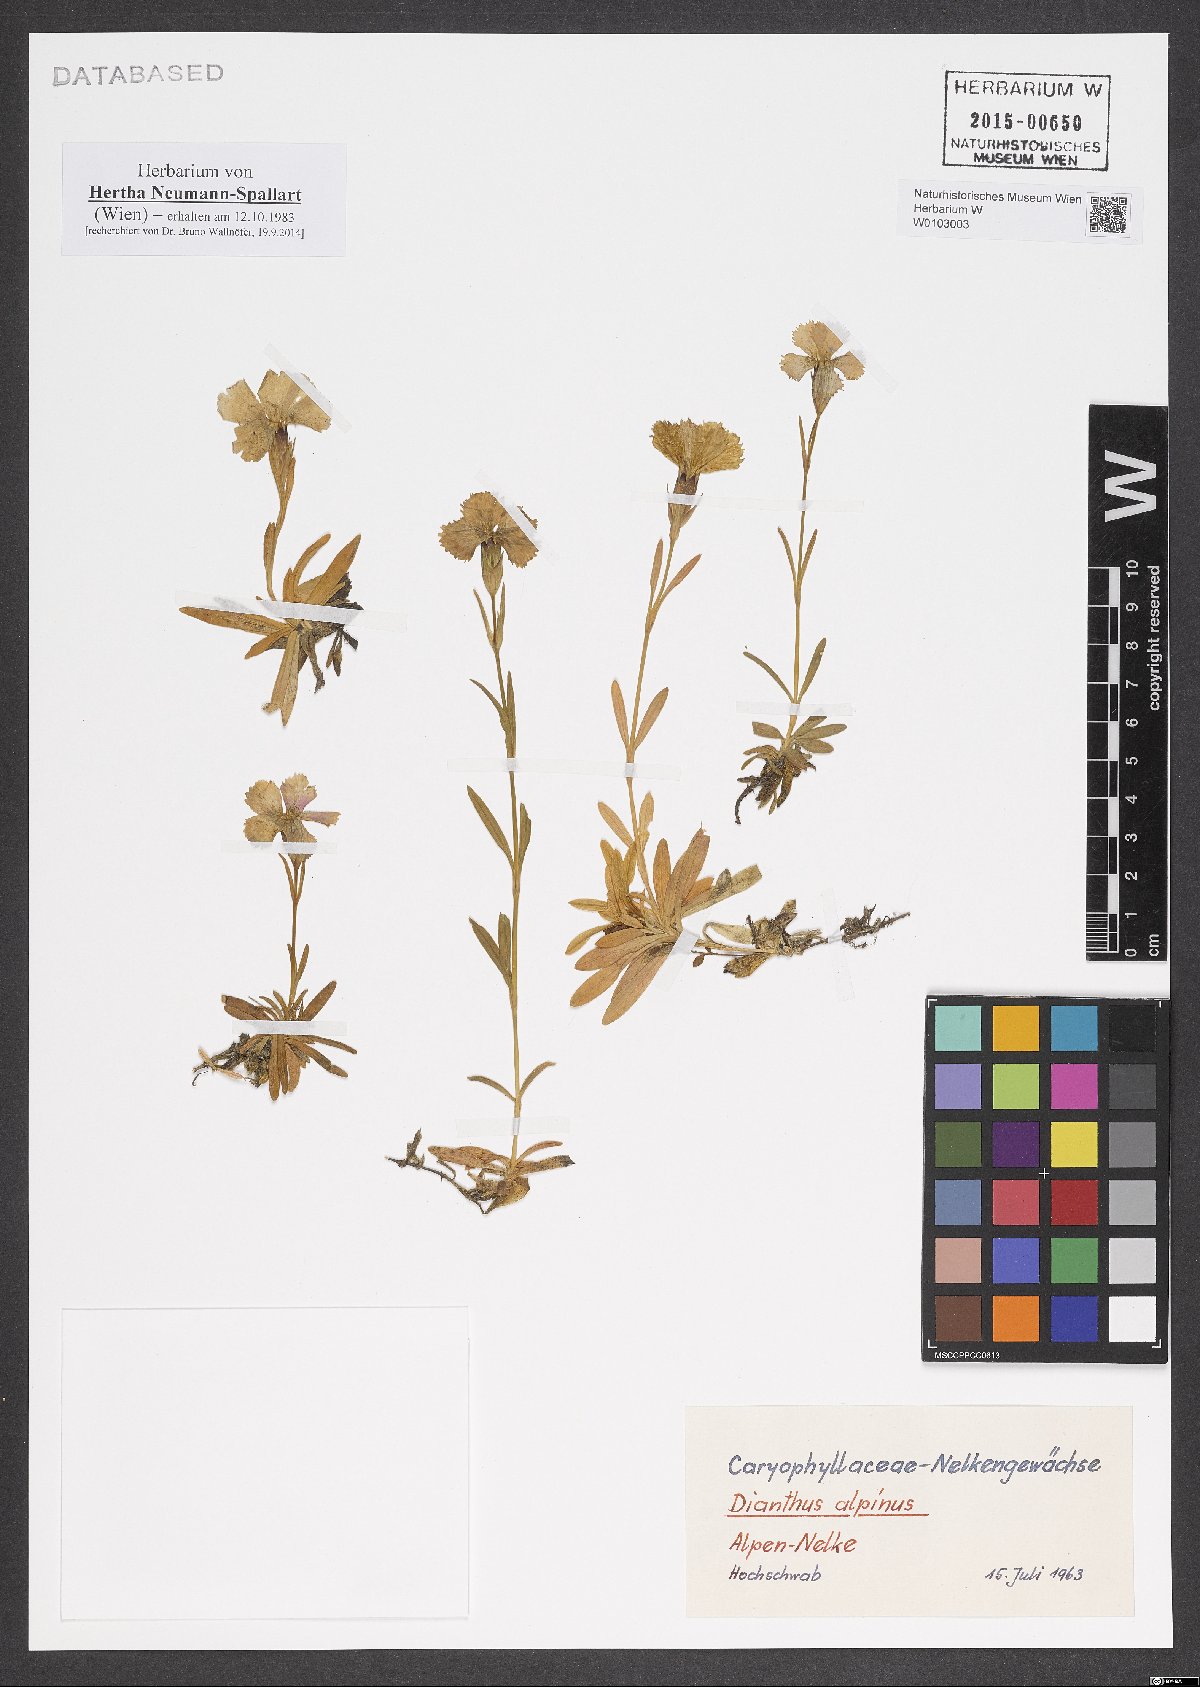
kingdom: Plantae
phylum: Tracheophyta
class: Magnoliopsida
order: Caryophyllales
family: Caryophyllaceae
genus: Dianthus
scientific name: Dianthus alpinus
